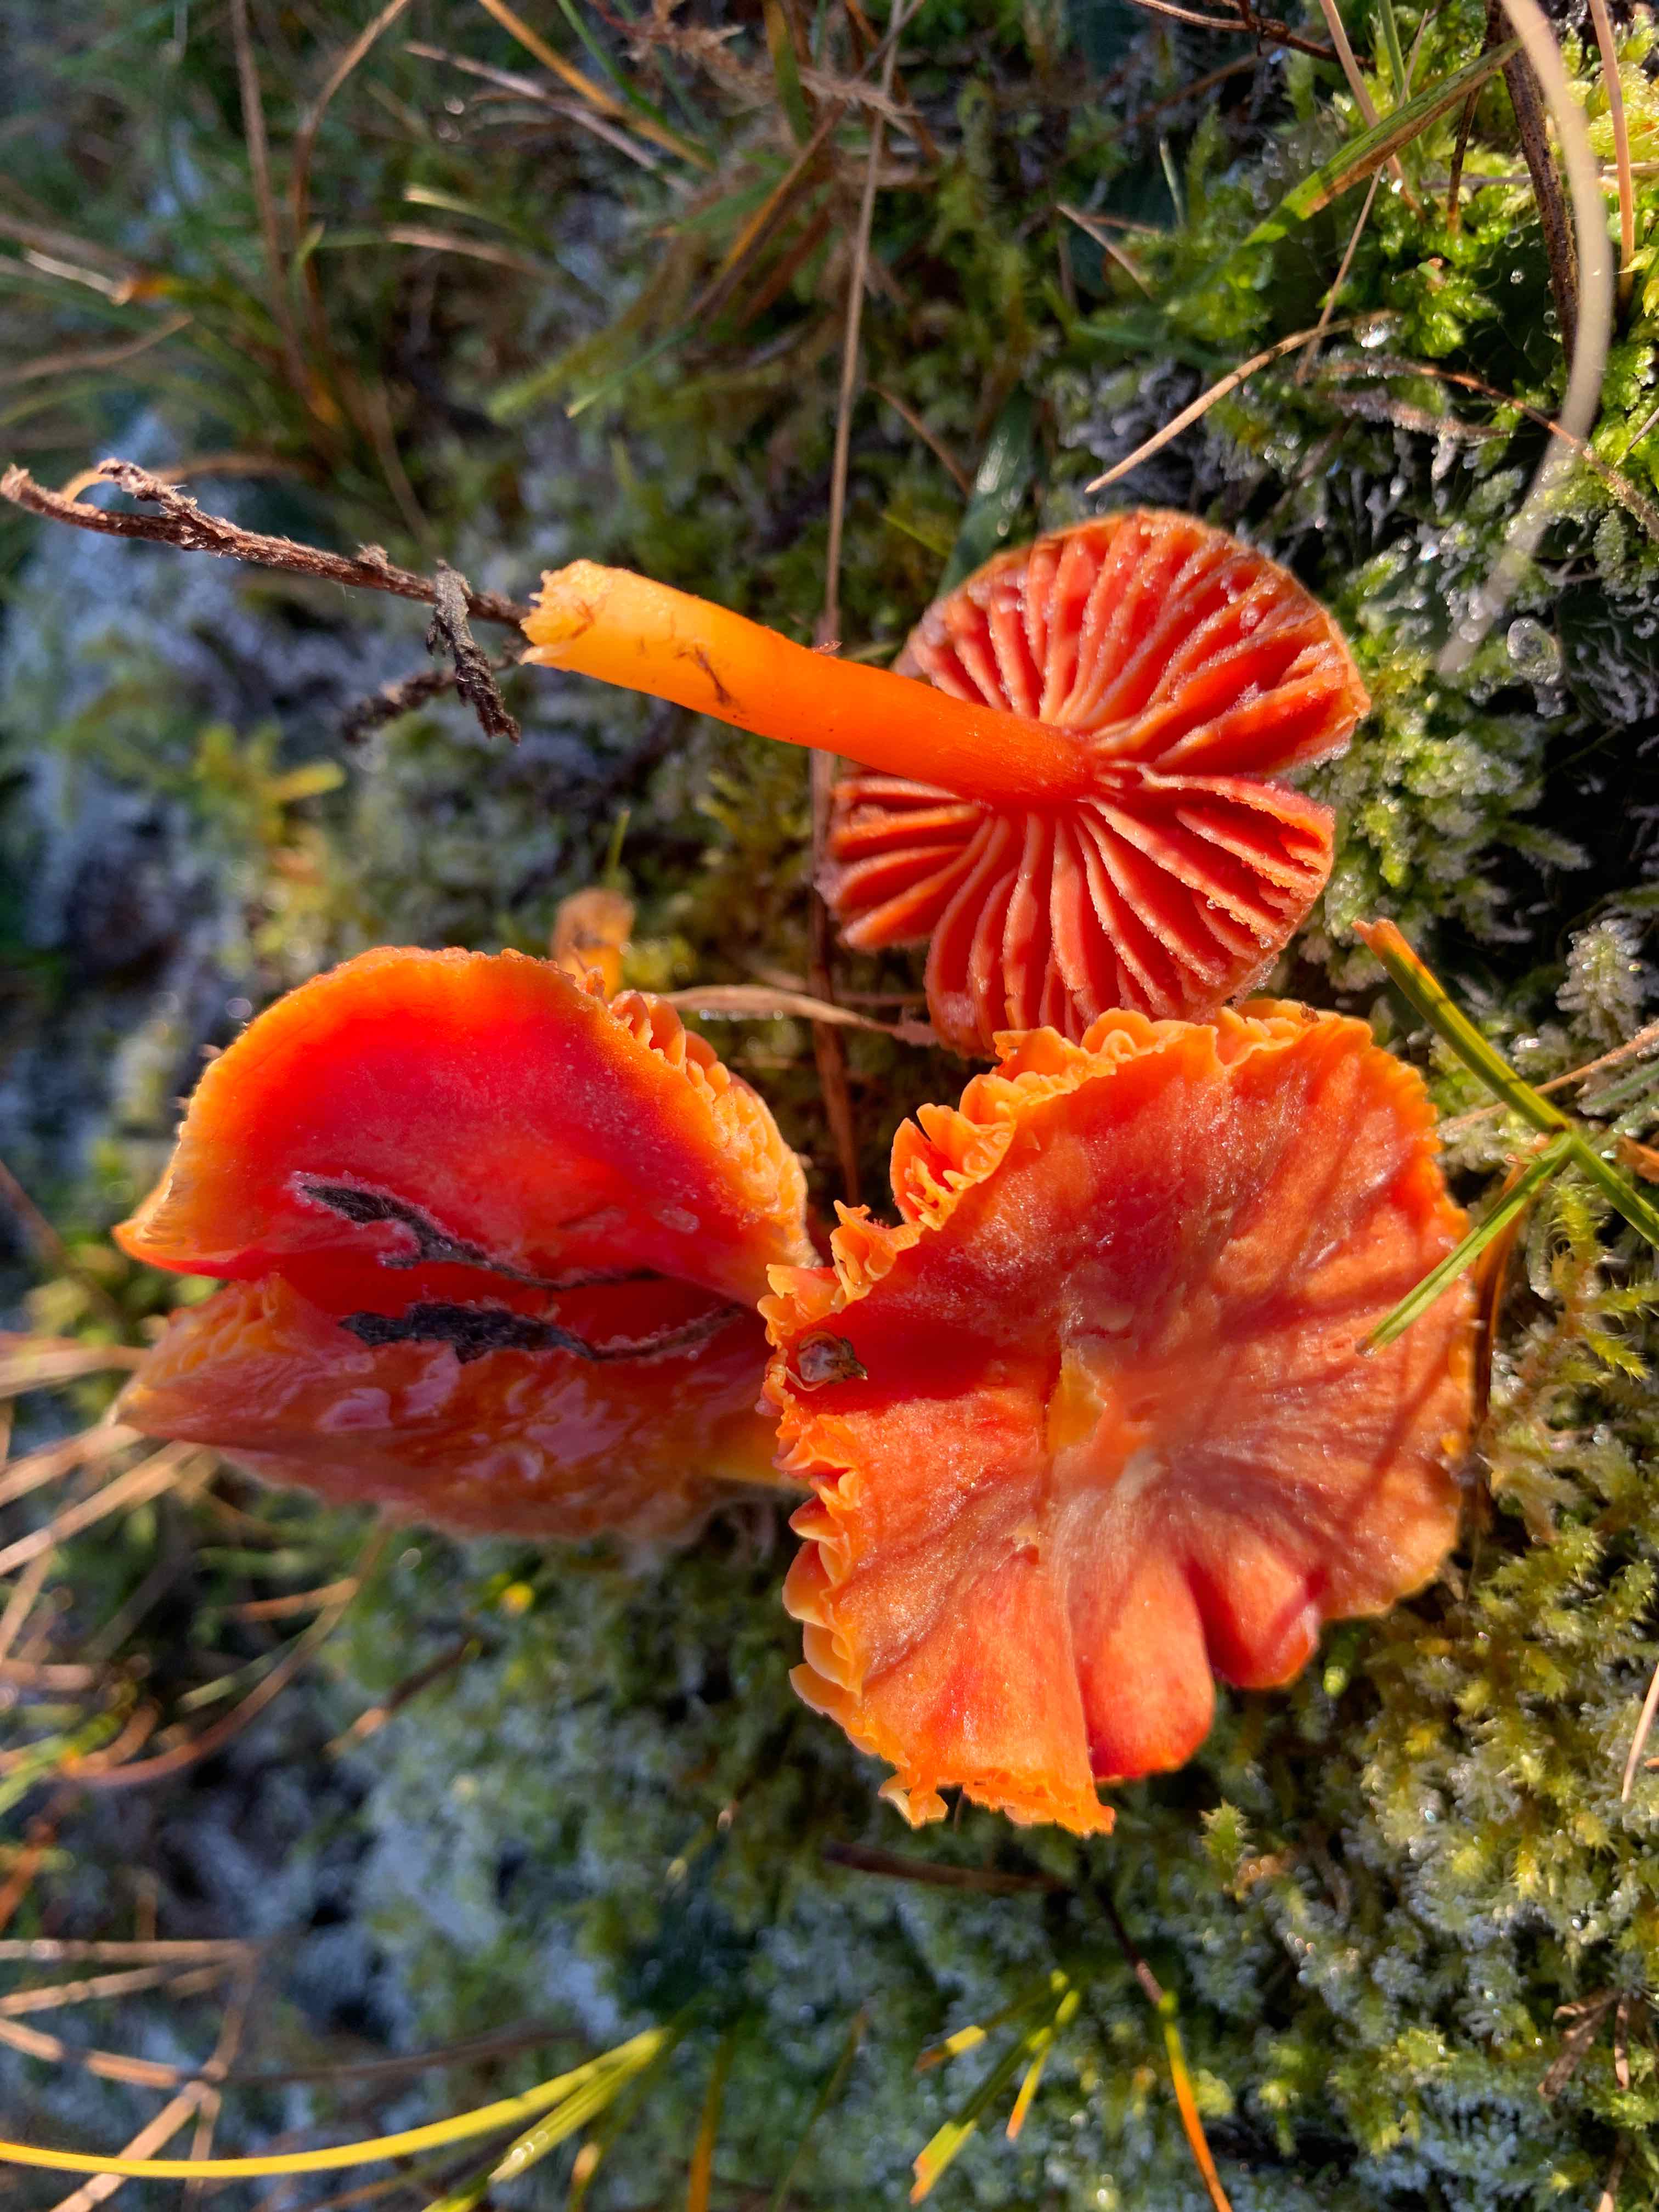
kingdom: Fungi
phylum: Basidiomycota
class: Agaricomycetes
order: Agaricales
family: Hygrophoraceae
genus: Hygrocybe
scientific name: Hygrocybe coccinea
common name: cinnober-vokshat
